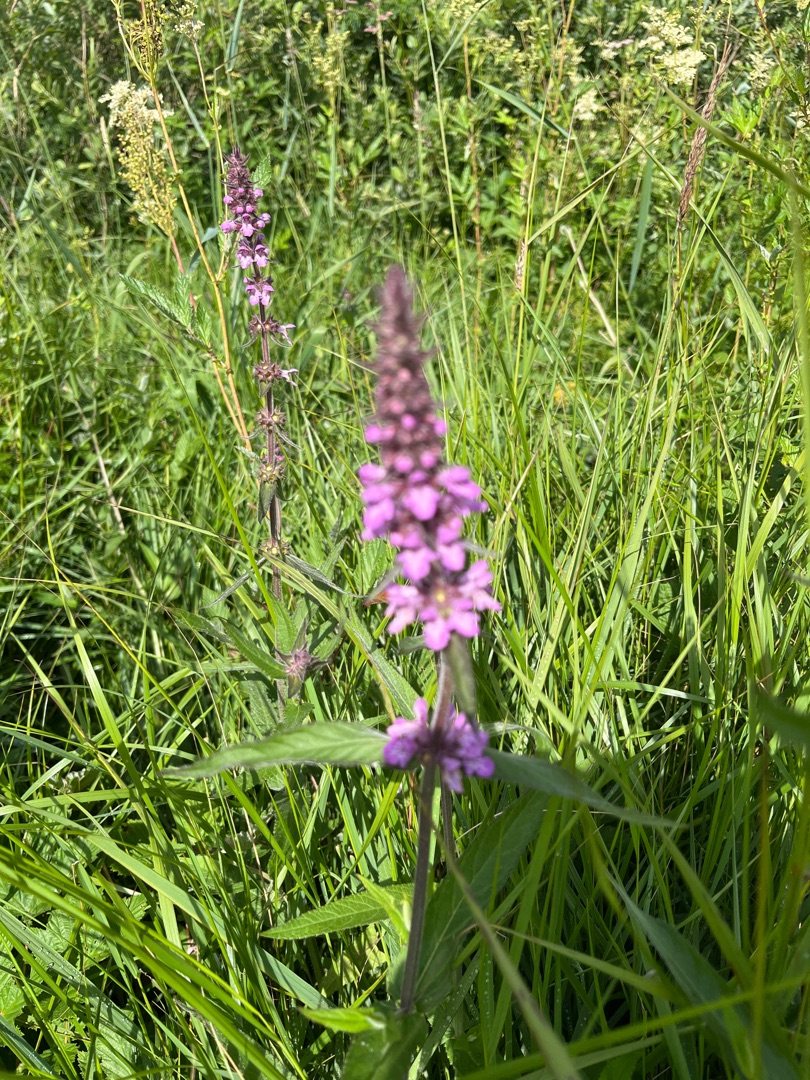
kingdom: Plantae
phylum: Tracheophyta
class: Magnoliopsida
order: Lamiales
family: Lamiaceae
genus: Stachys
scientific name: Stachys palustris
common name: Kær-galtetand
